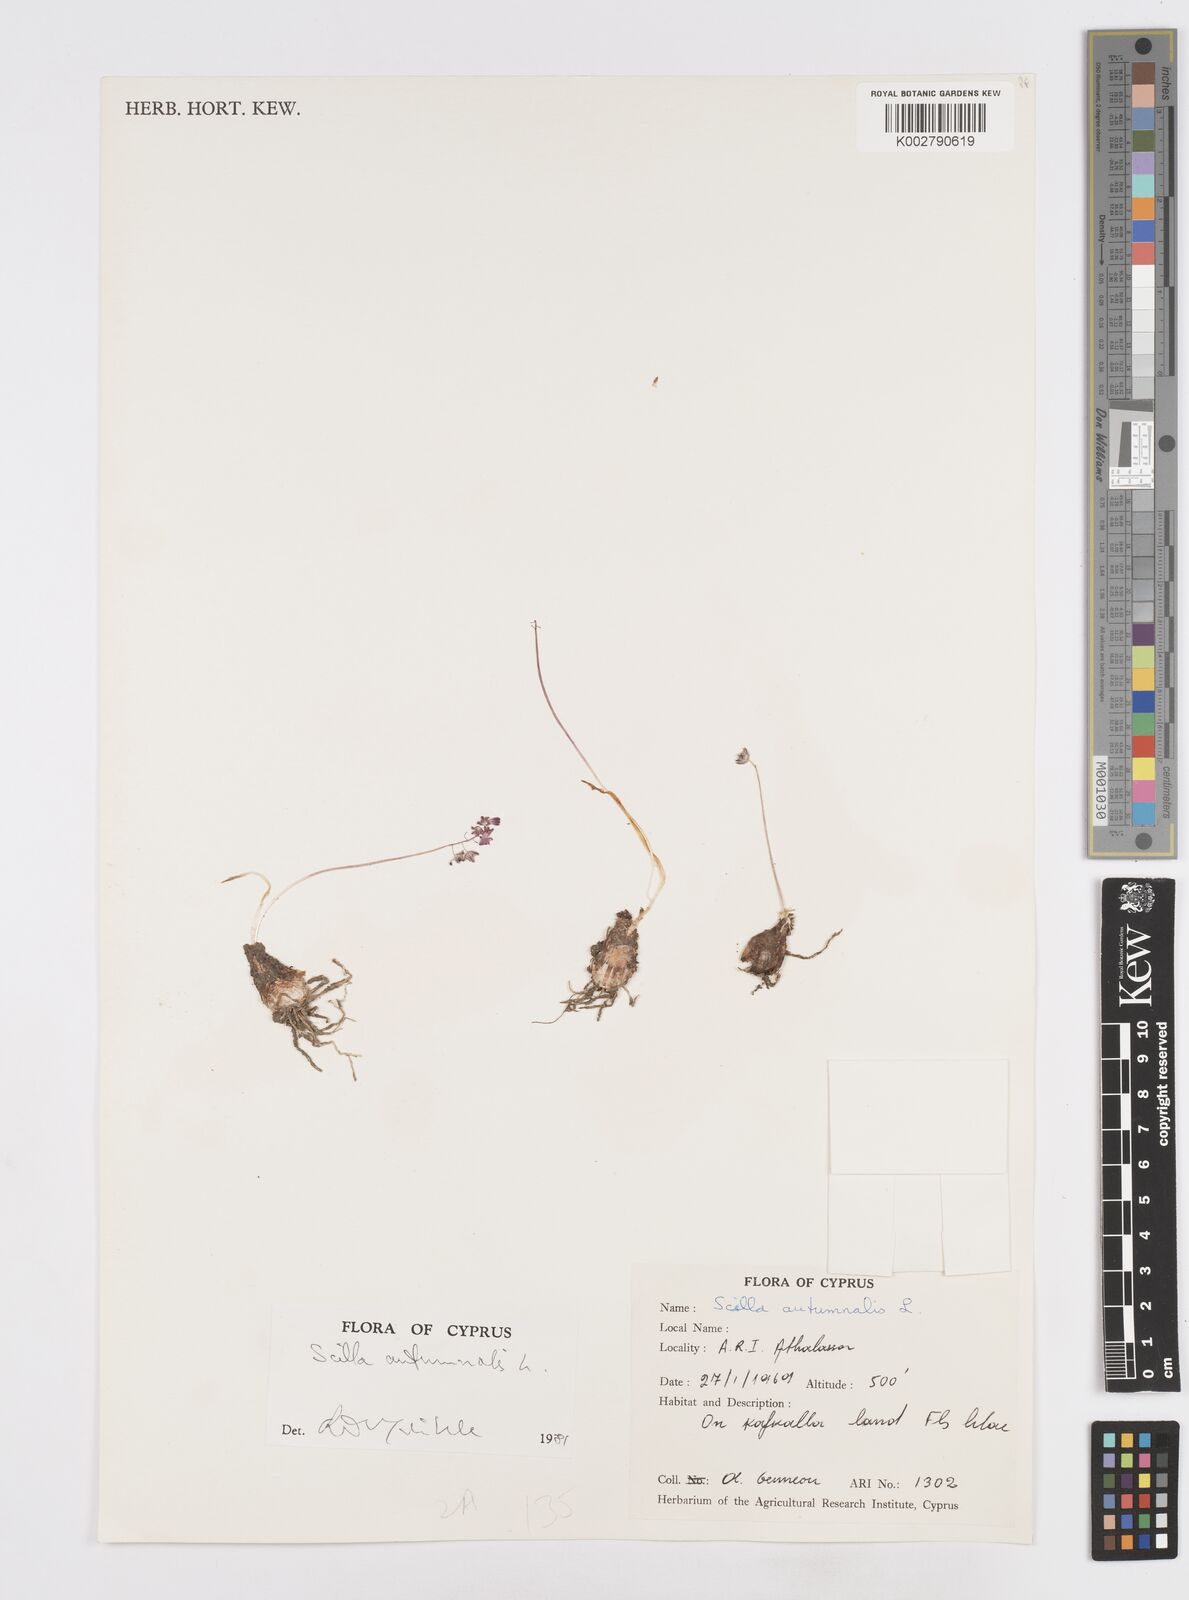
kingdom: Plantae
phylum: Tracheophyta
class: Liliopsida
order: Asparagales
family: Asparagaceae
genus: Prospero
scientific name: Prospero autumnale
